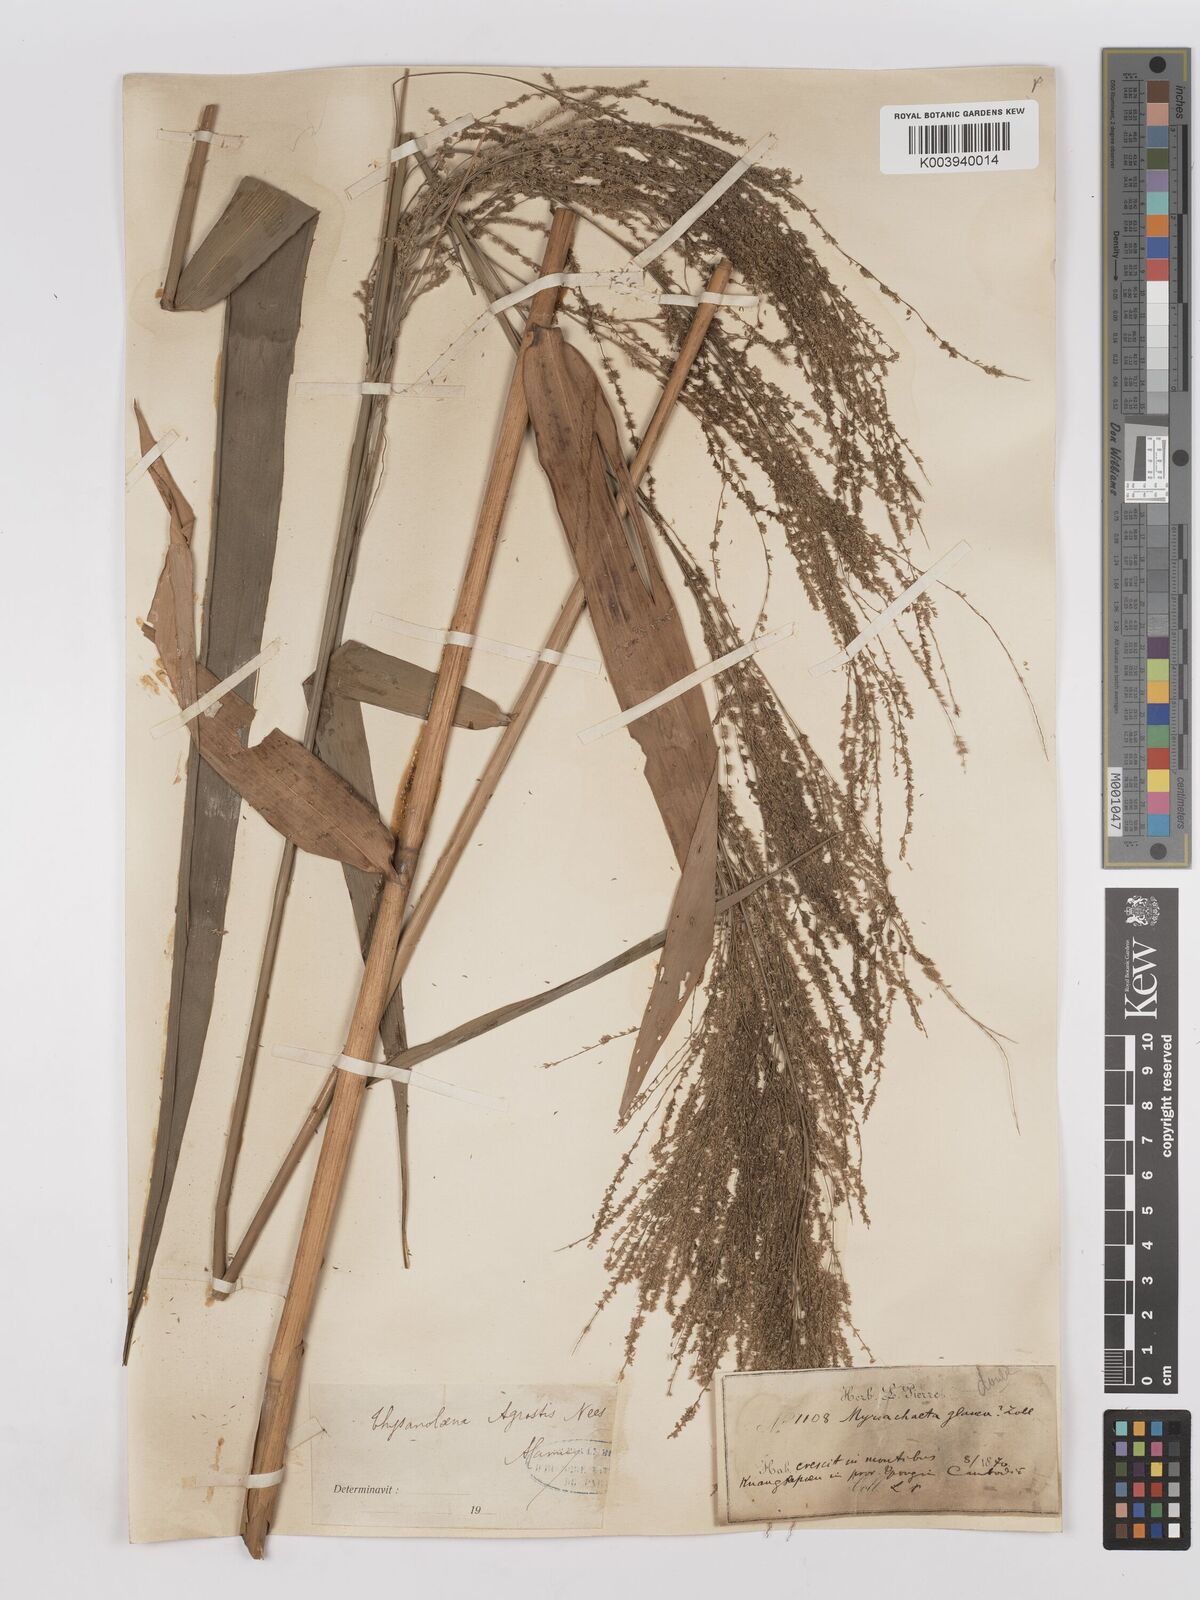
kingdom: Plantae
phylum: Tracheophyta
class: Liliopsida
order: Poales
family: Poaceae
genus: Thysanolaena
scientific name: Thysanolaena latifolia
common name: Tiger grass
